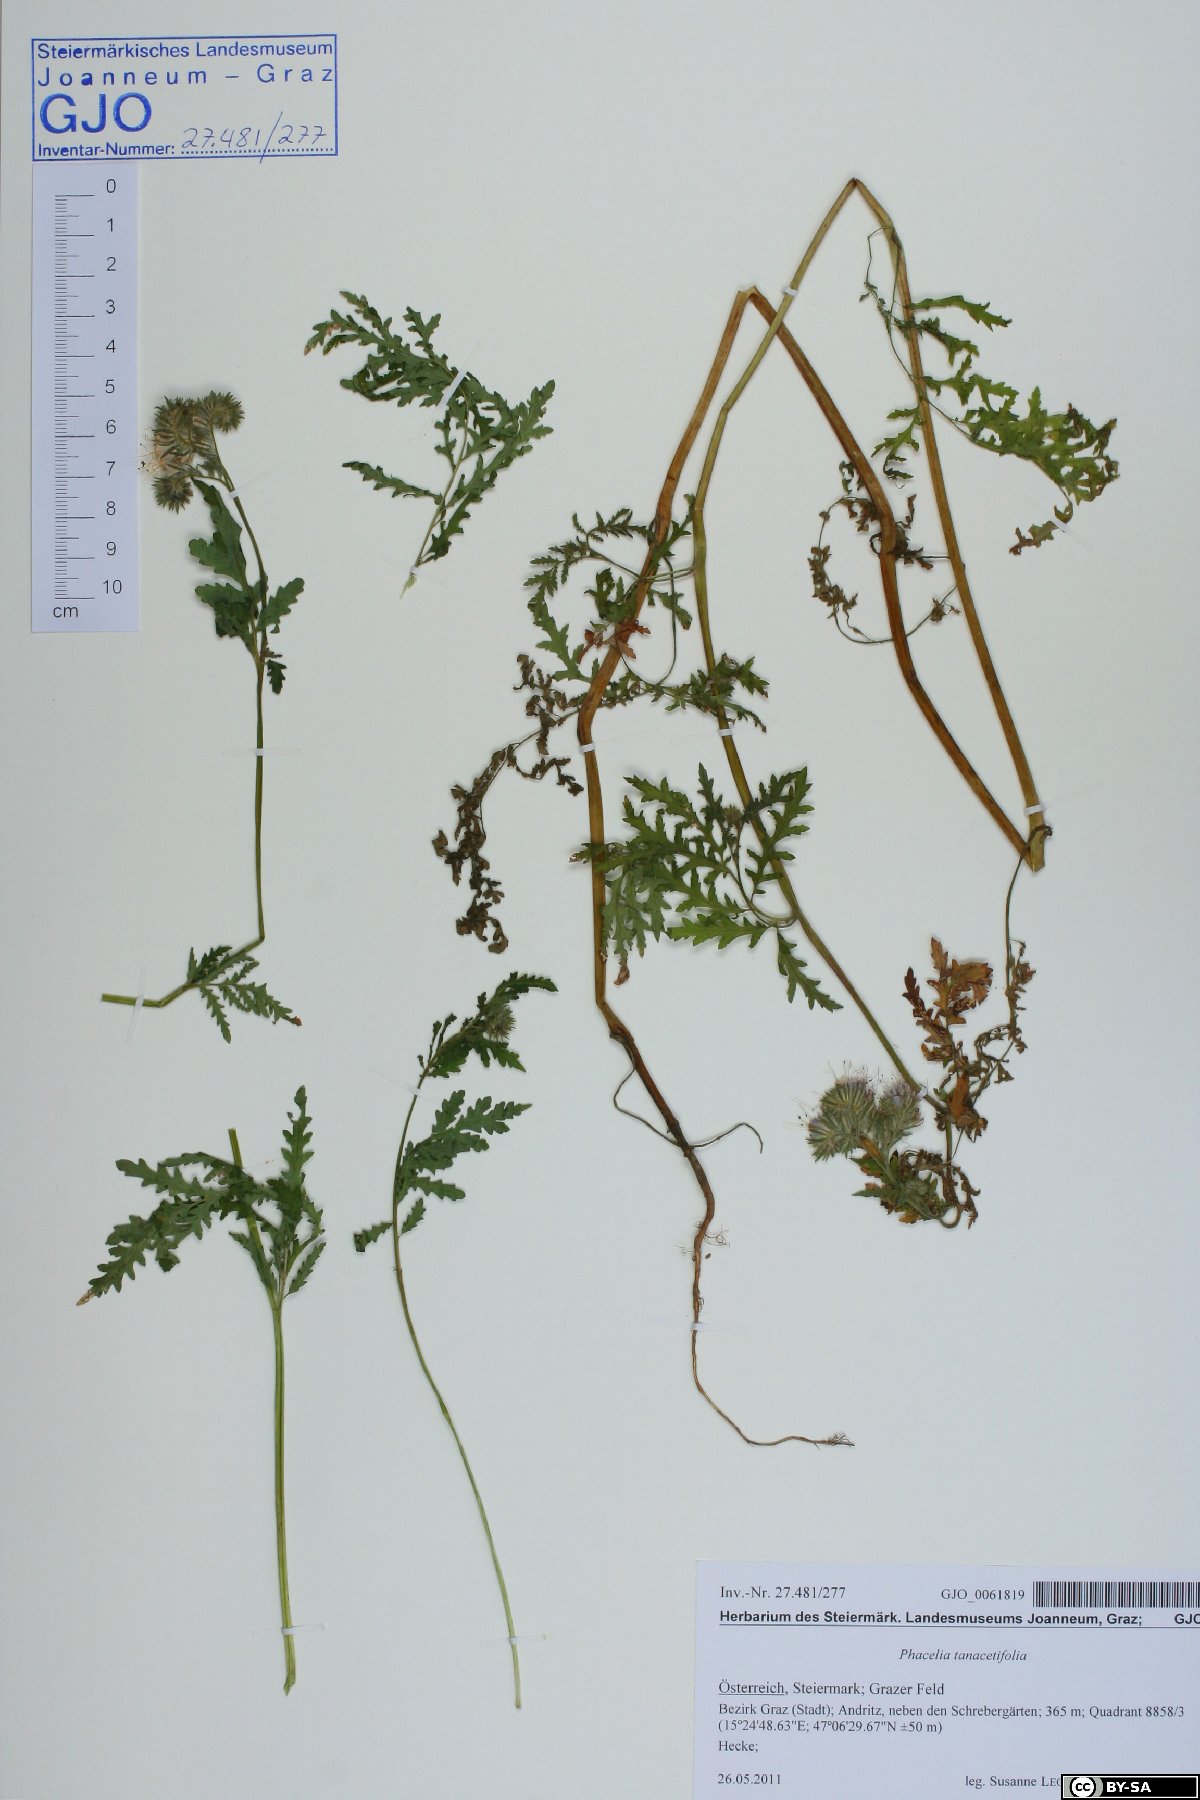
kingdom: Plantae
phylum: Tracheophyta
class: Magnoliopsida
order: Boraginales
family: Hydrophyllaceae
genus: Phacelia
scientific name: Phacelia tanacetifolia
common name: Phacelia
